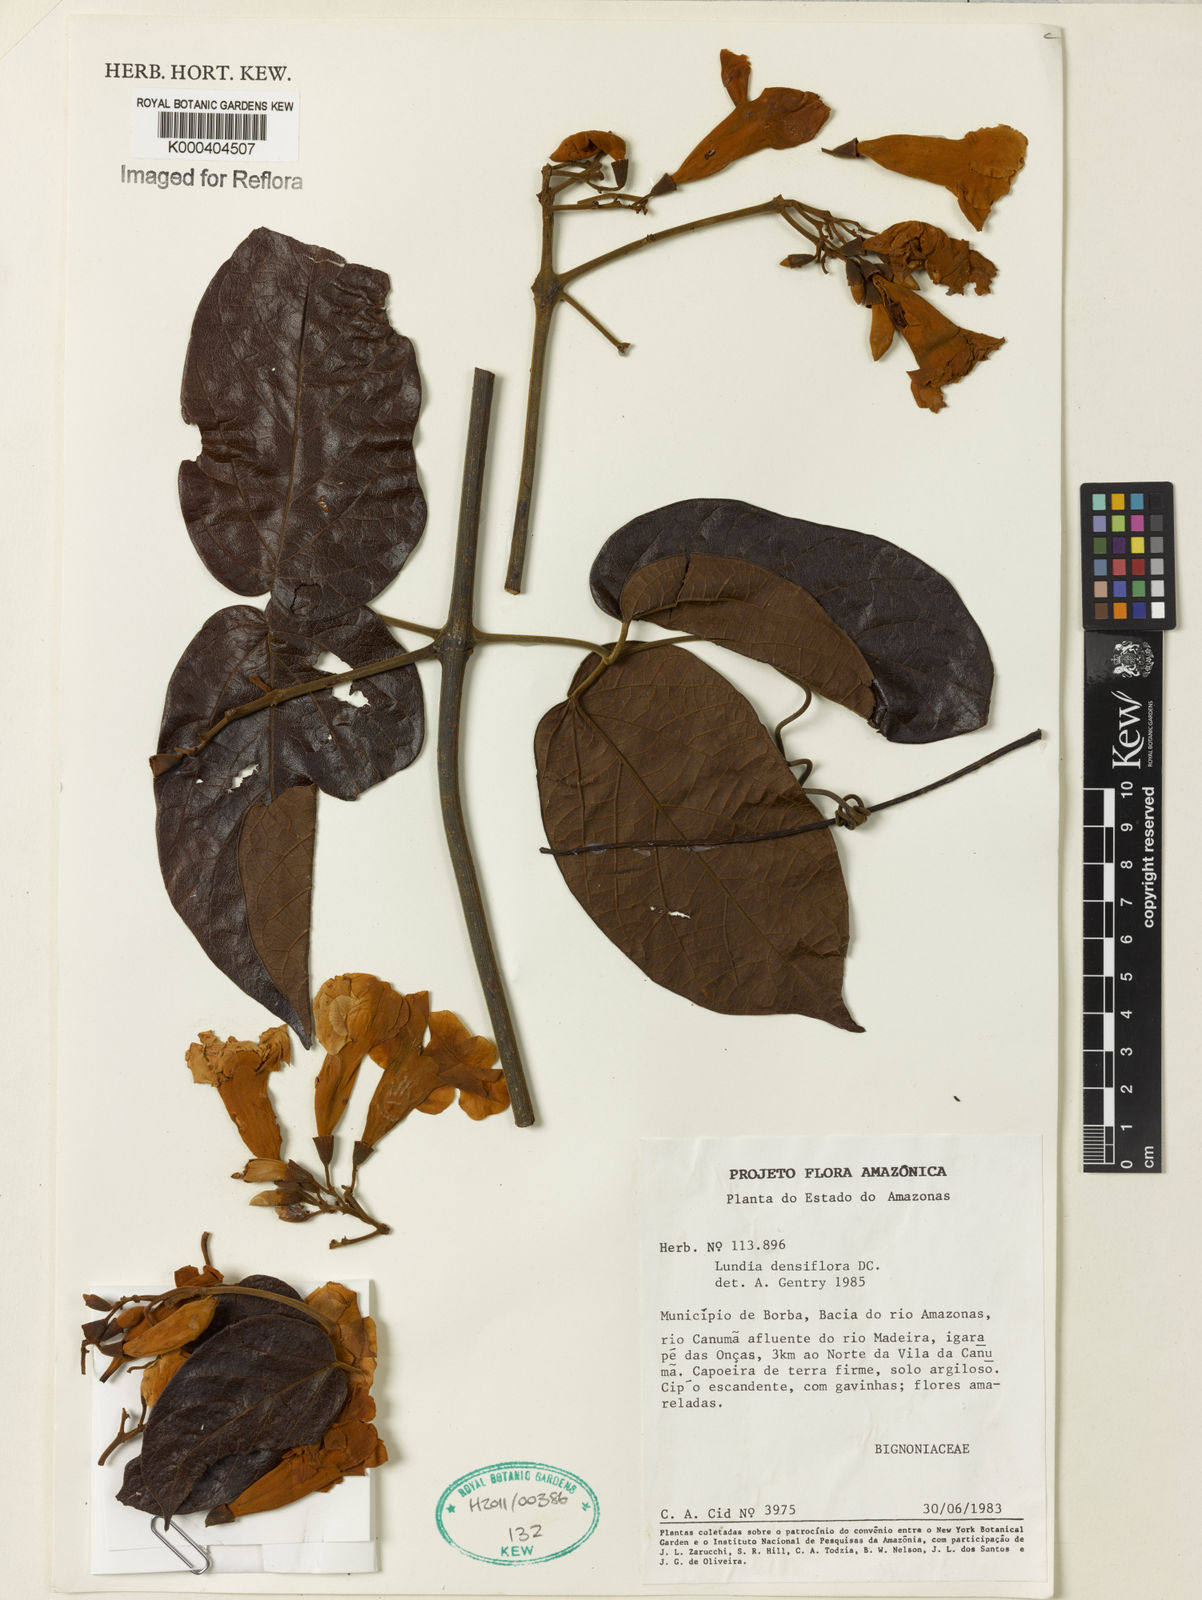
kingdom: Plantae
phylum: Tracheophyta
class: Magnoliopsida
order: Lamiales
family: Bignoniaceae
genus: Lundia
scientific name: Lundia densiflora
